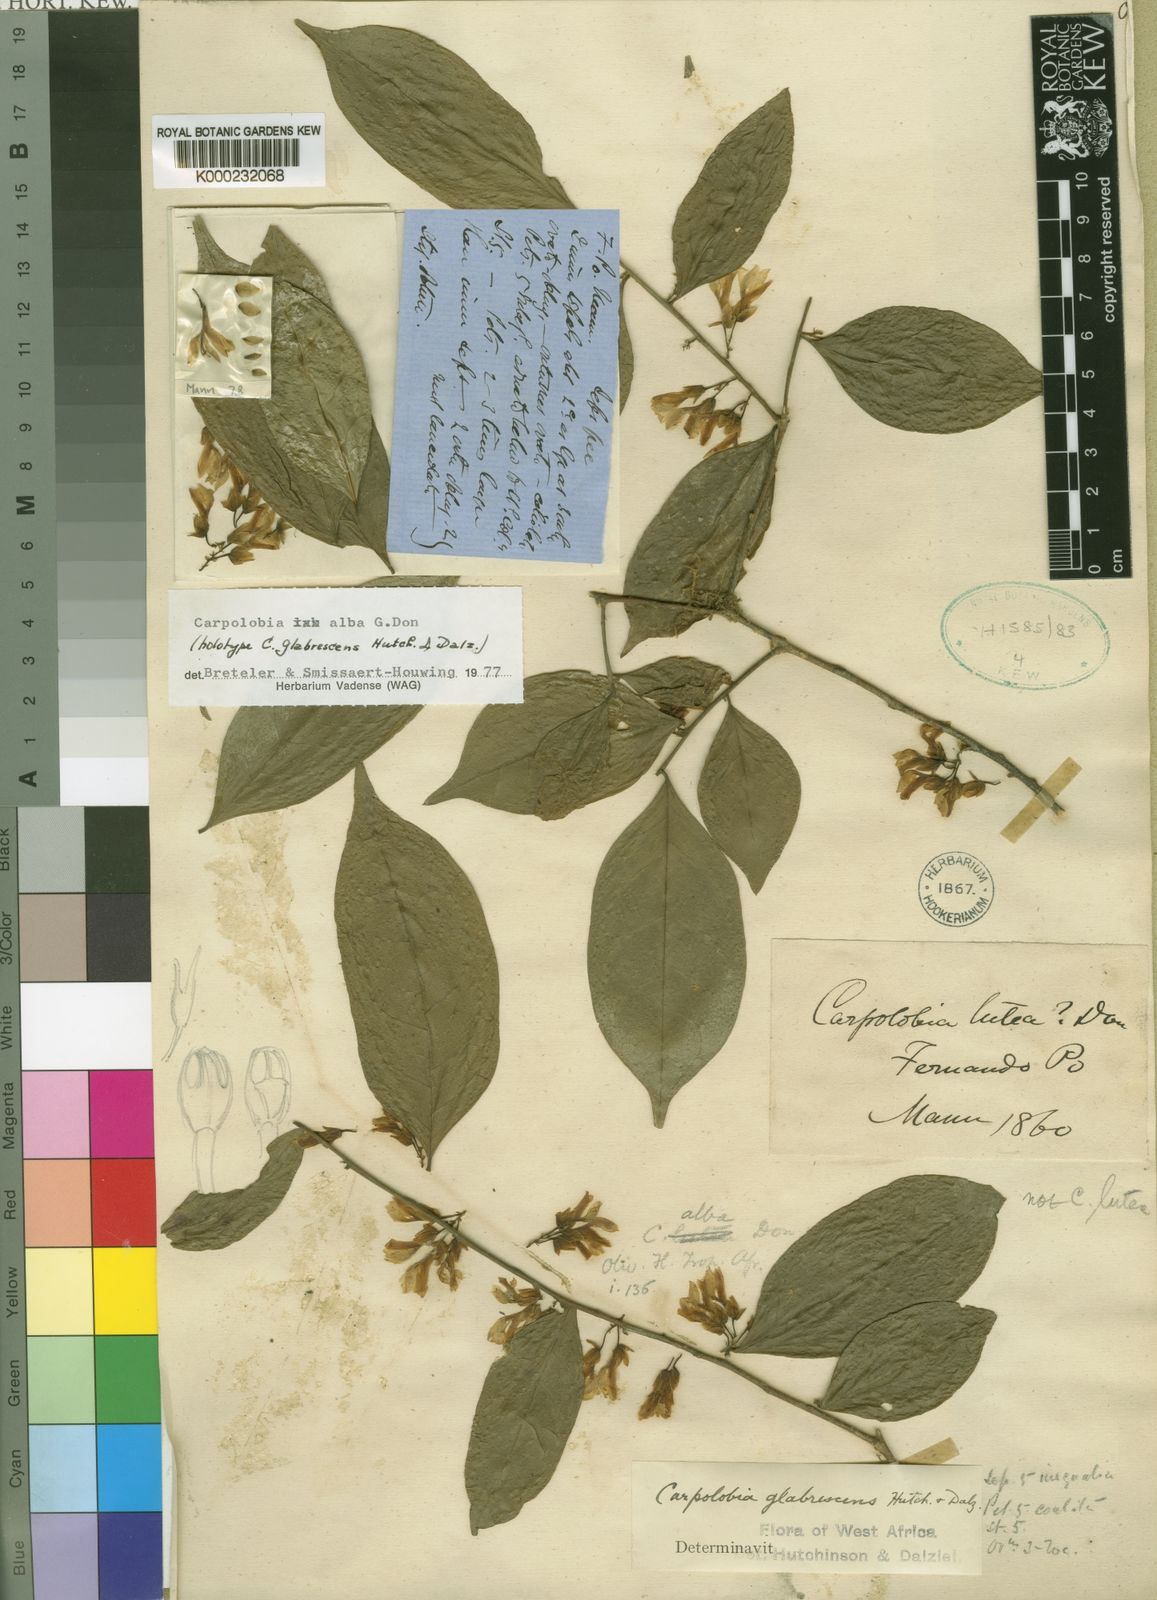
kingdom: Plantae
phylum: Tracheophyta
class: Magnoliopsida
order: Fabales
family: Polygalaceae
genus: Carpolobia
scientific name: Carpolobia alba
